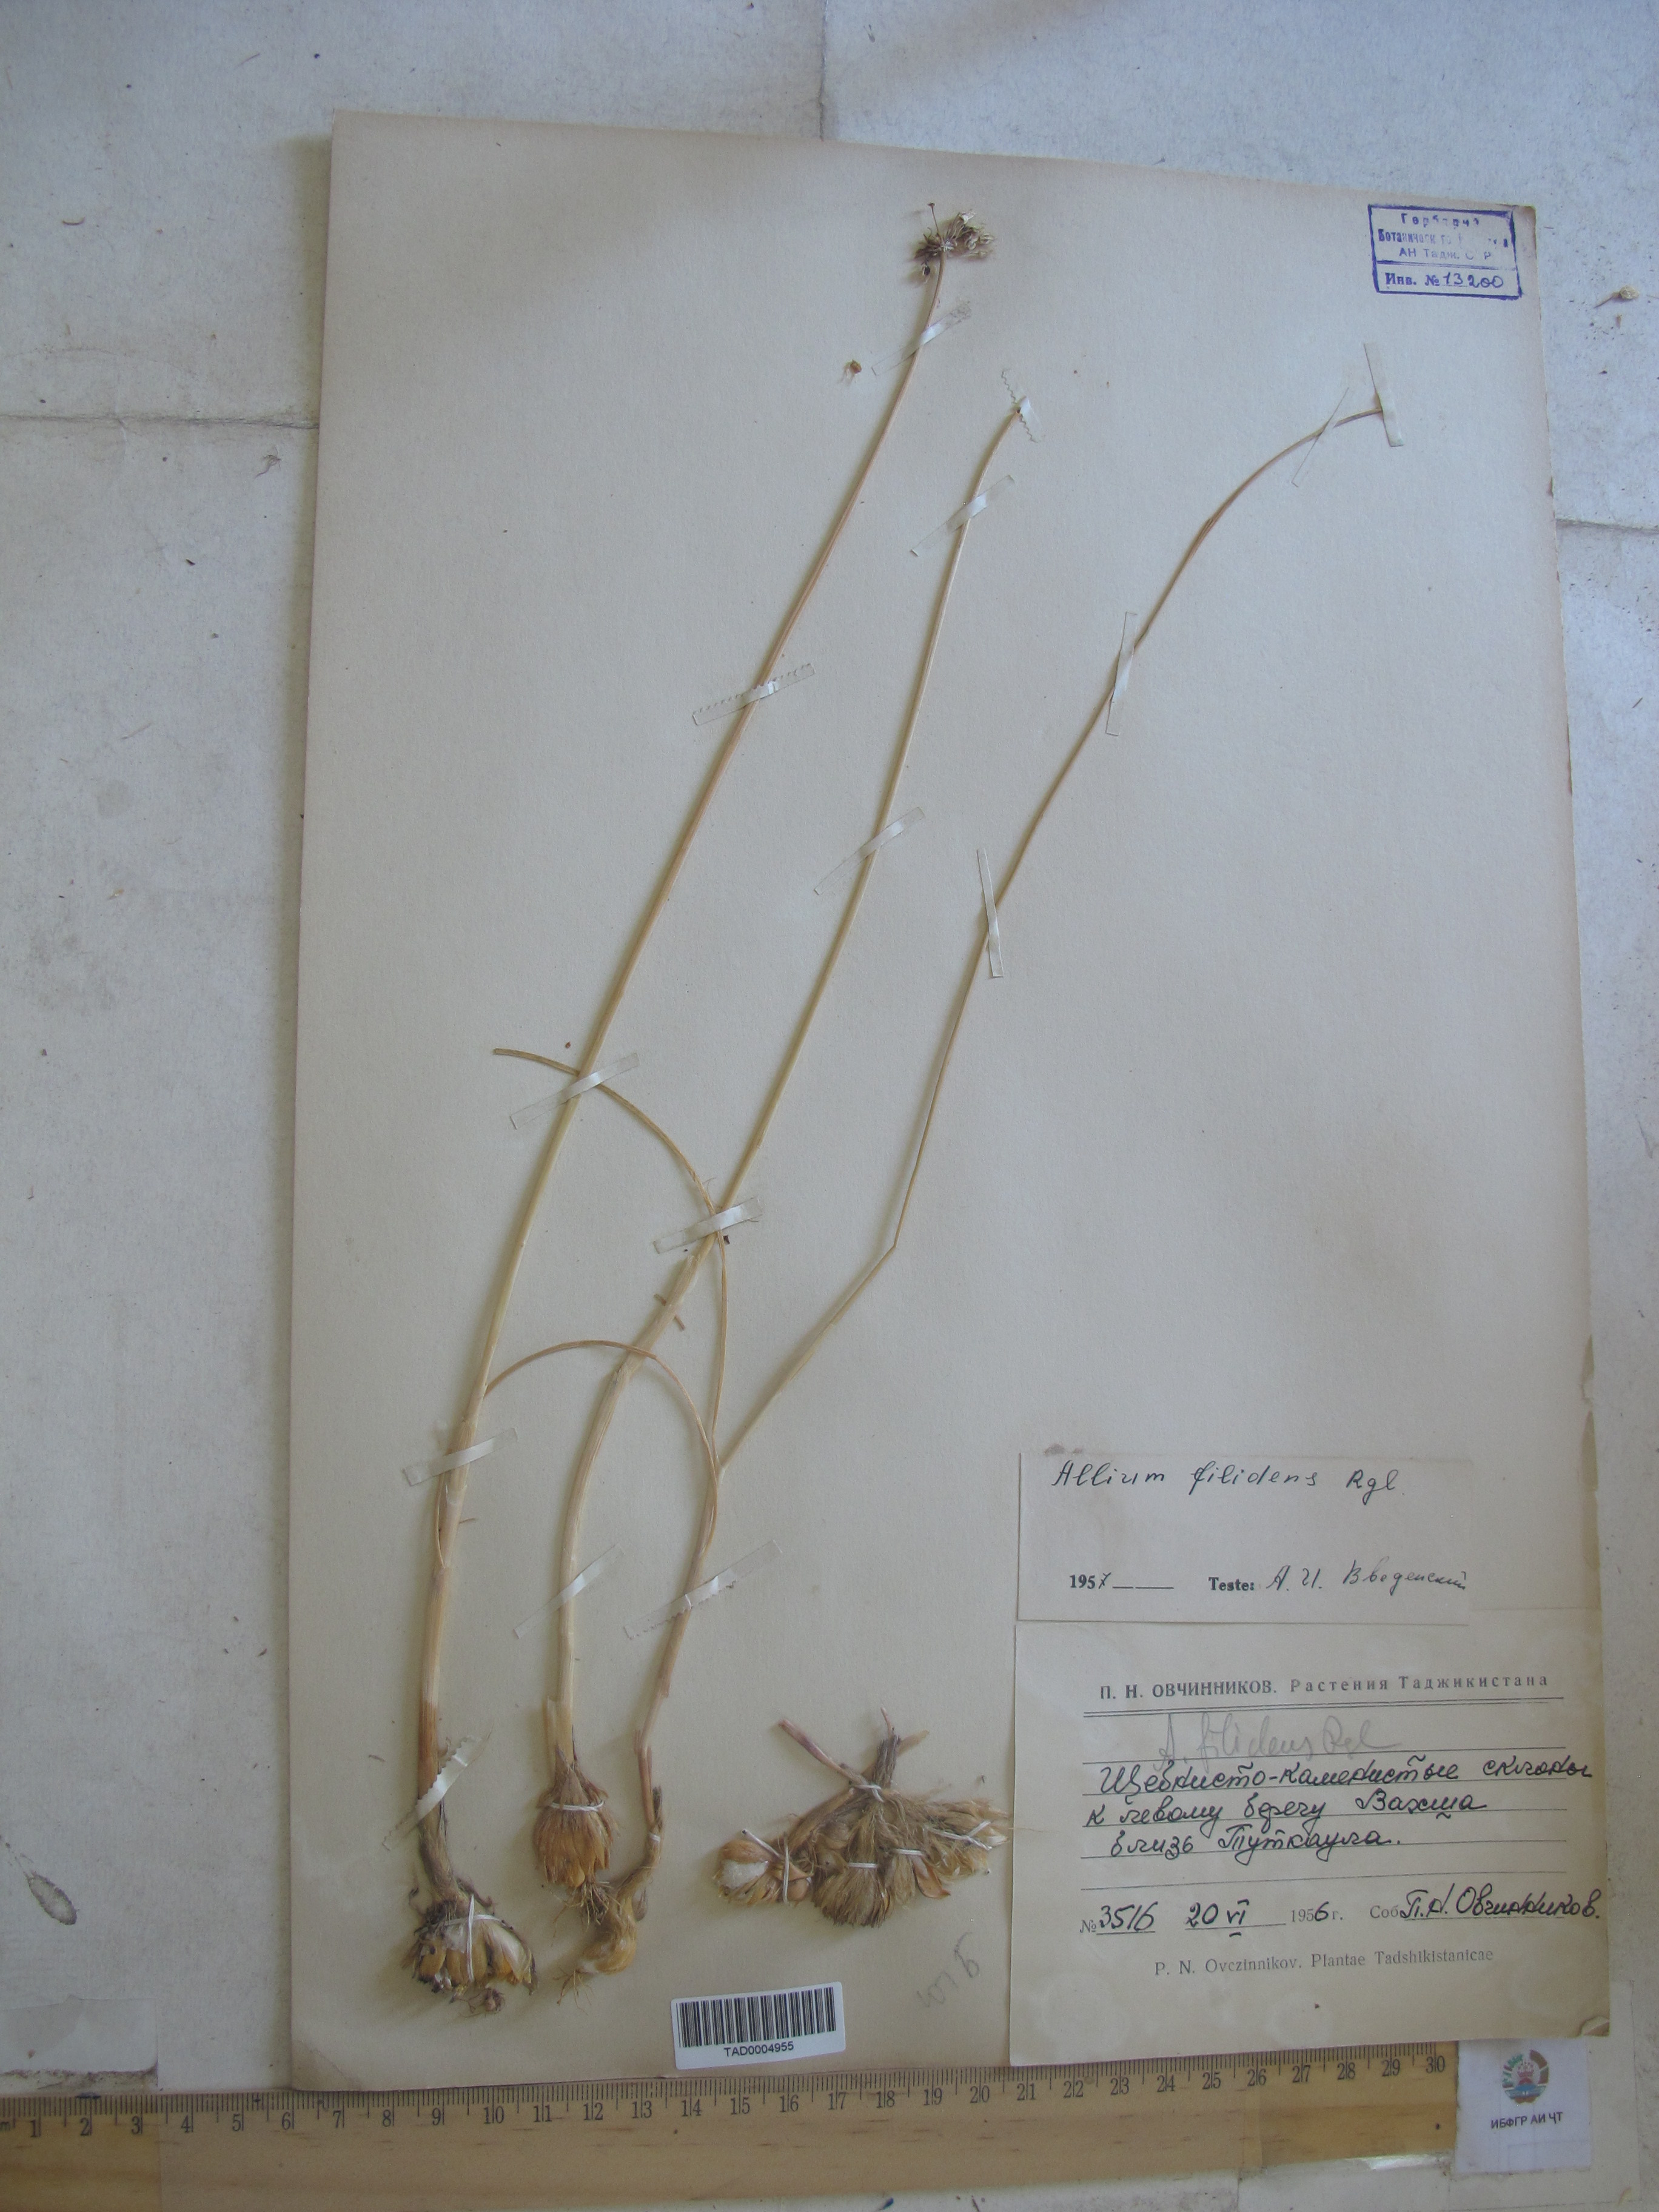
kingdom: Plantae
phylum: Tracheophyta
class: Liliopsida
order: Asparagales
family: Amaryllidaceae
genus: Allium
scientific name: Allium filidens
